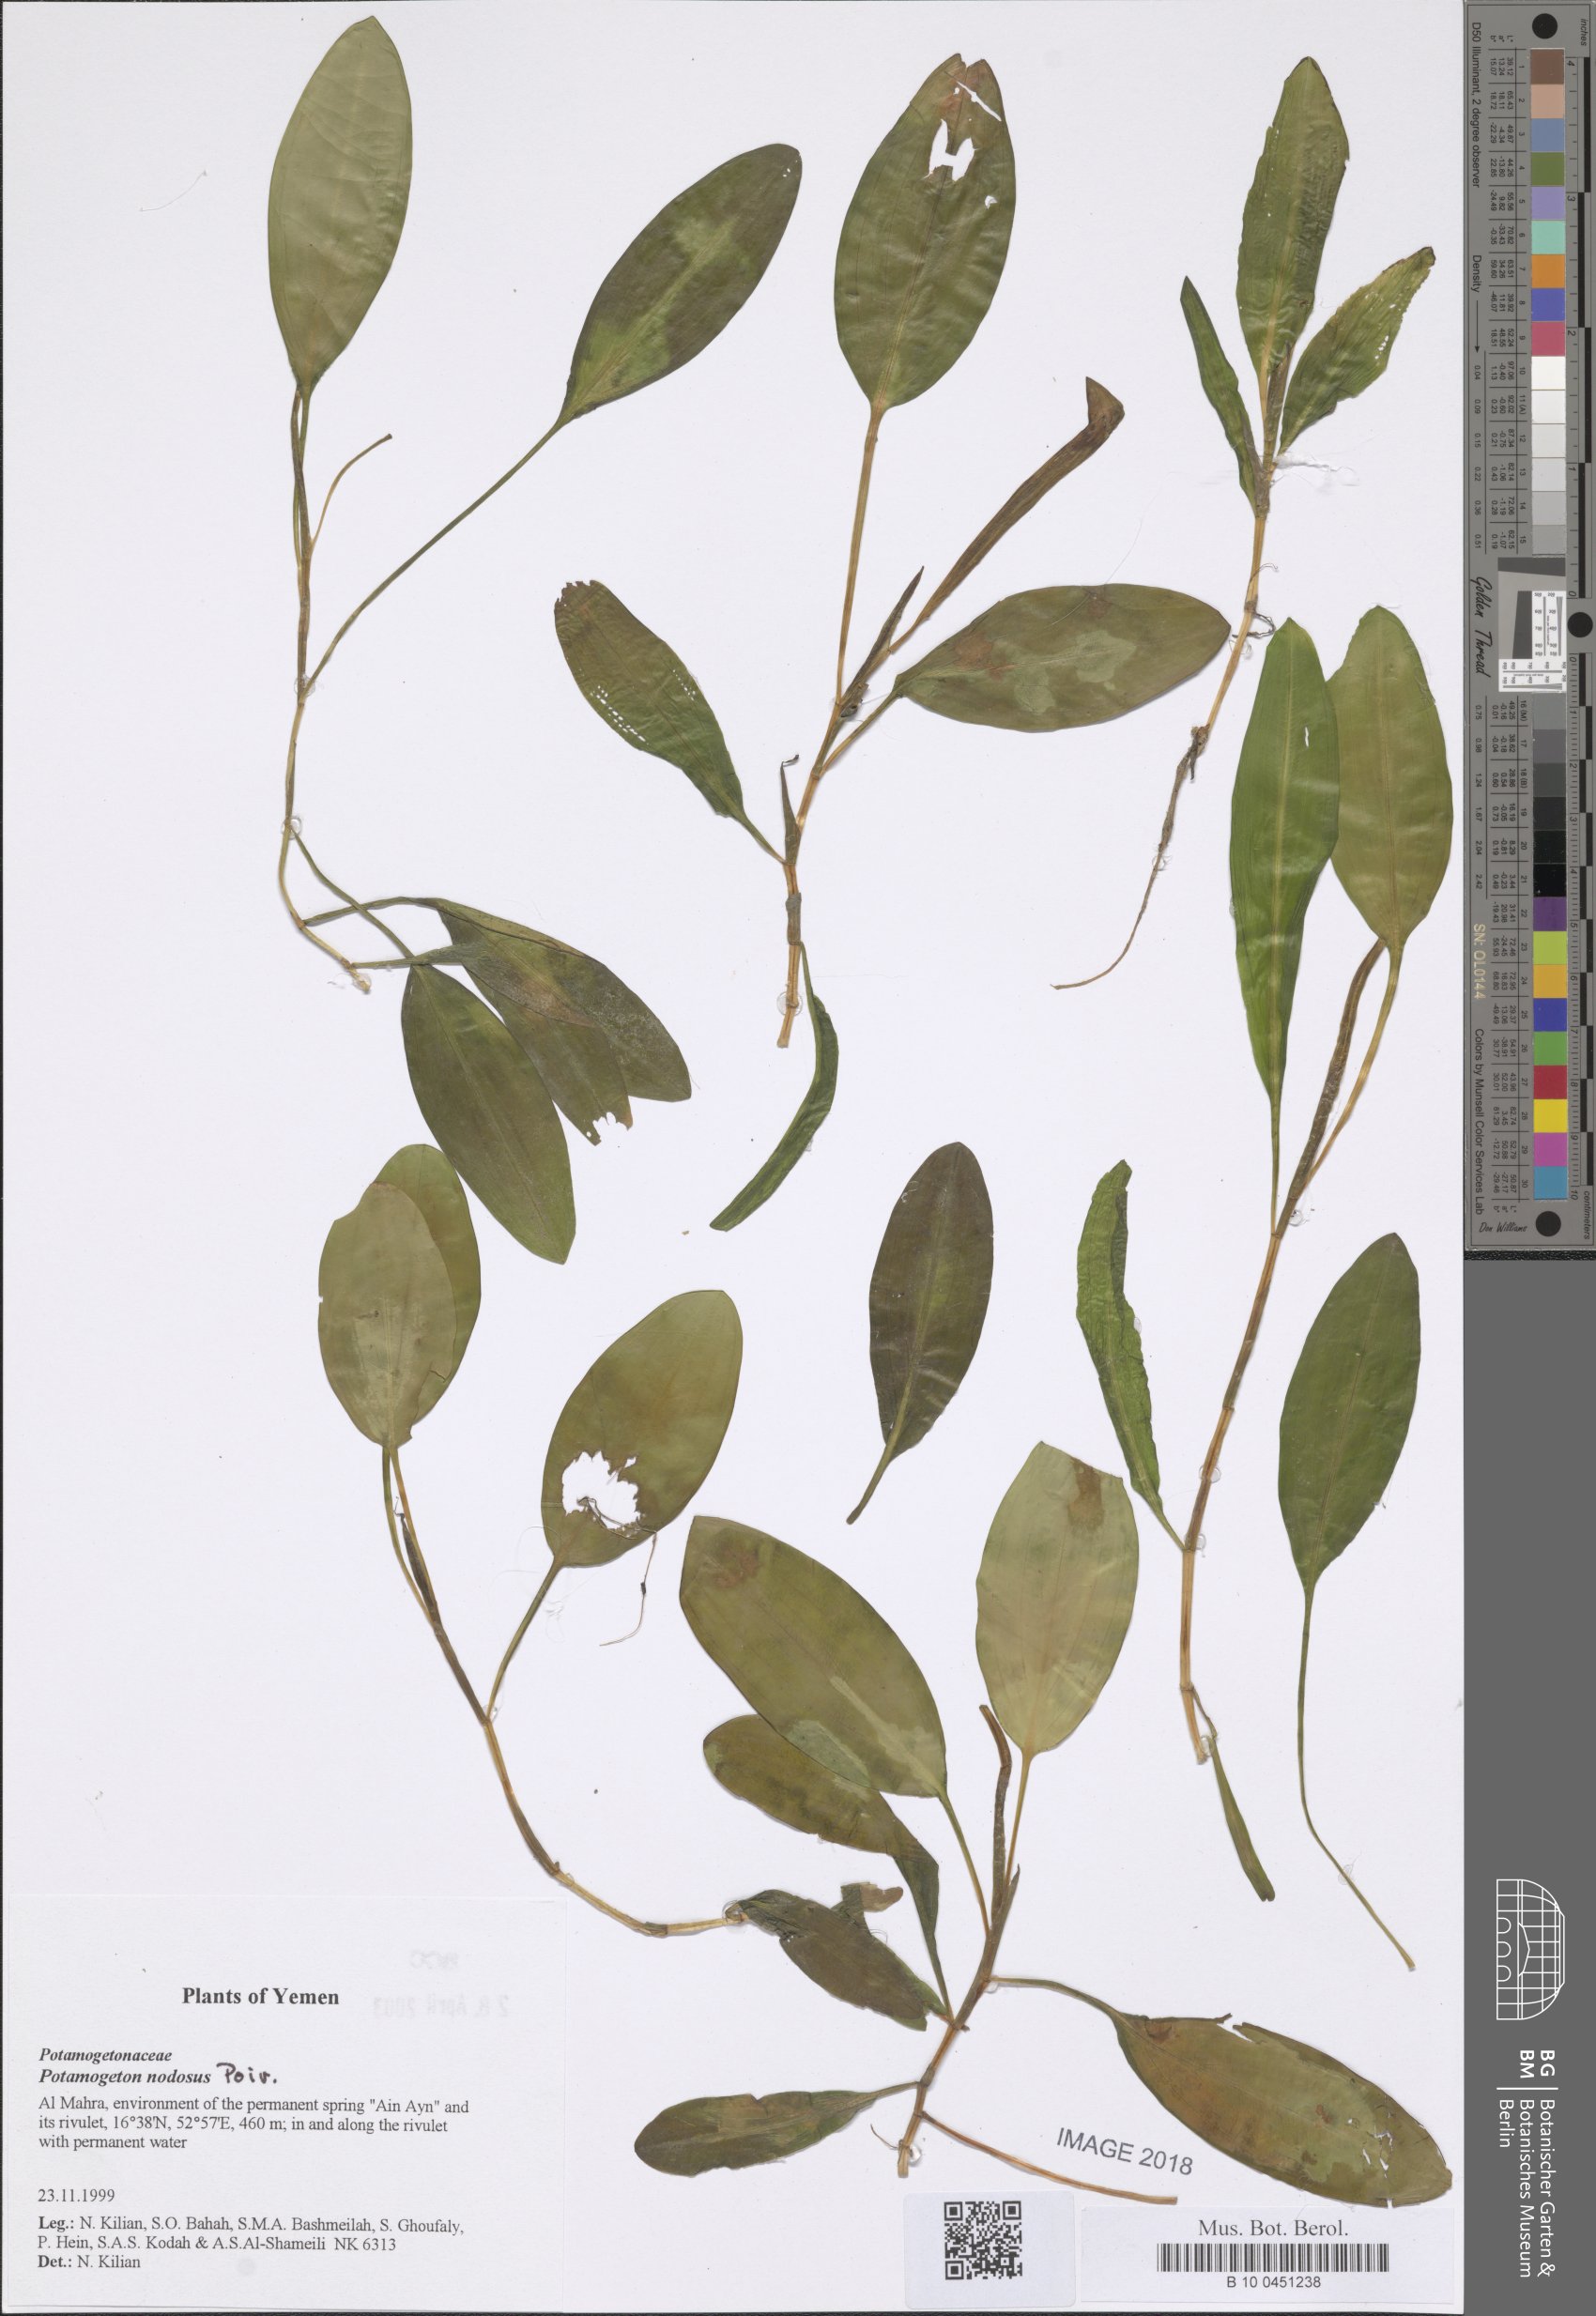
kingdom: Plantae
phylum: Tracheophyta
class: Liliopsida
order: Alismatales
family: Potamogetonaceae
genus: Potamogeton
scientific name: Potamogeton nodosus
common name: Loddon pondweed
